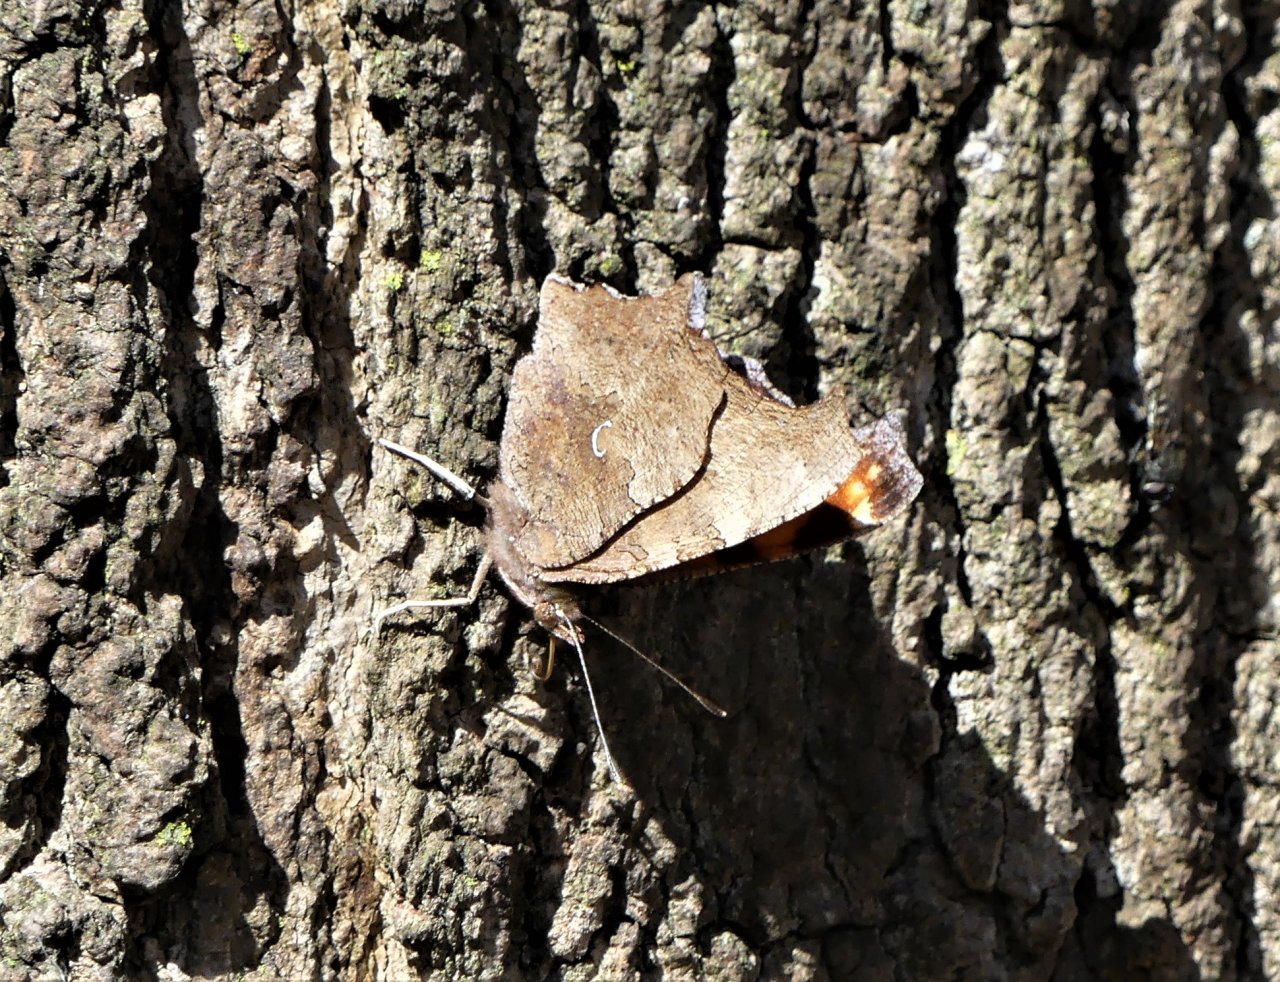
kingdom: Animalia
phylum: Arthropoda
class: Insecta
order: Lepidoptera
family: Nymphalidae
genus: Polygonia
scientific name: Polygonia comma
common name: Eastern Comma
